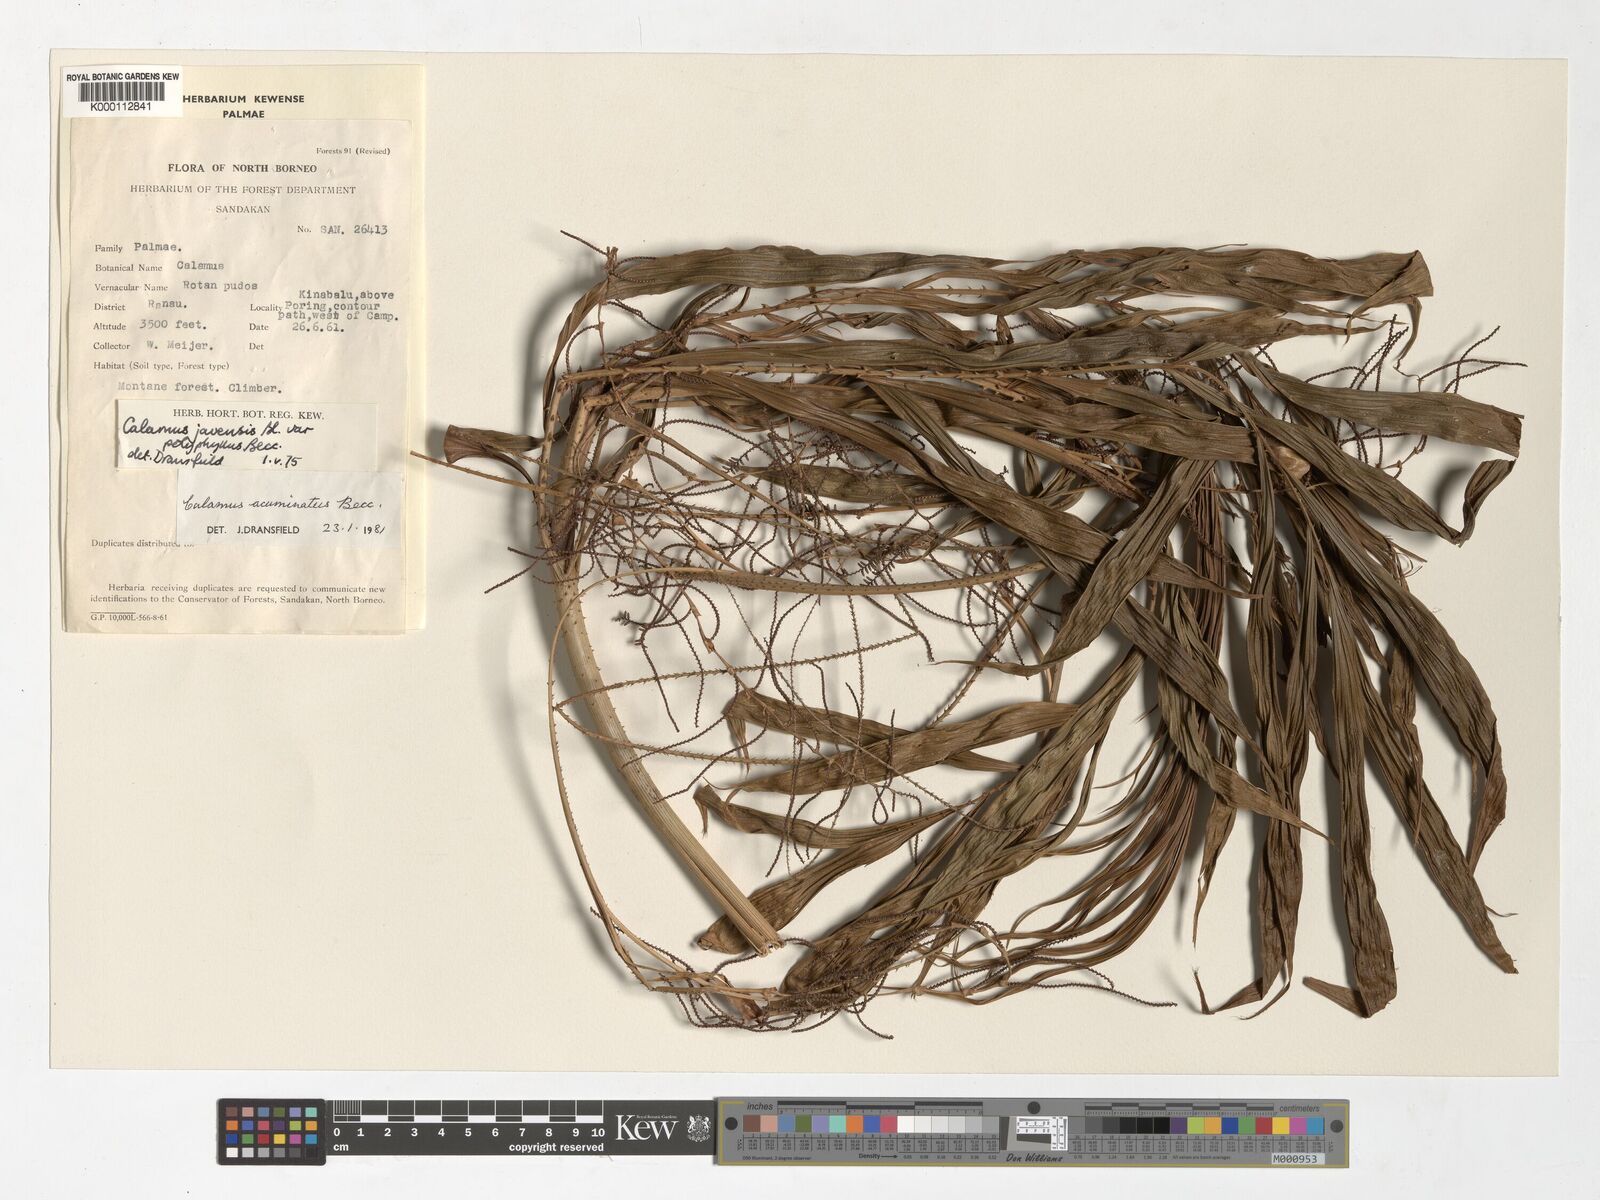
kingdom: Plantae
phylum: Tracheophyta
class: Liliopsida
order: Arecales
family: Arecaceae
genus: Calamus
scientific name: Calamus javensis
